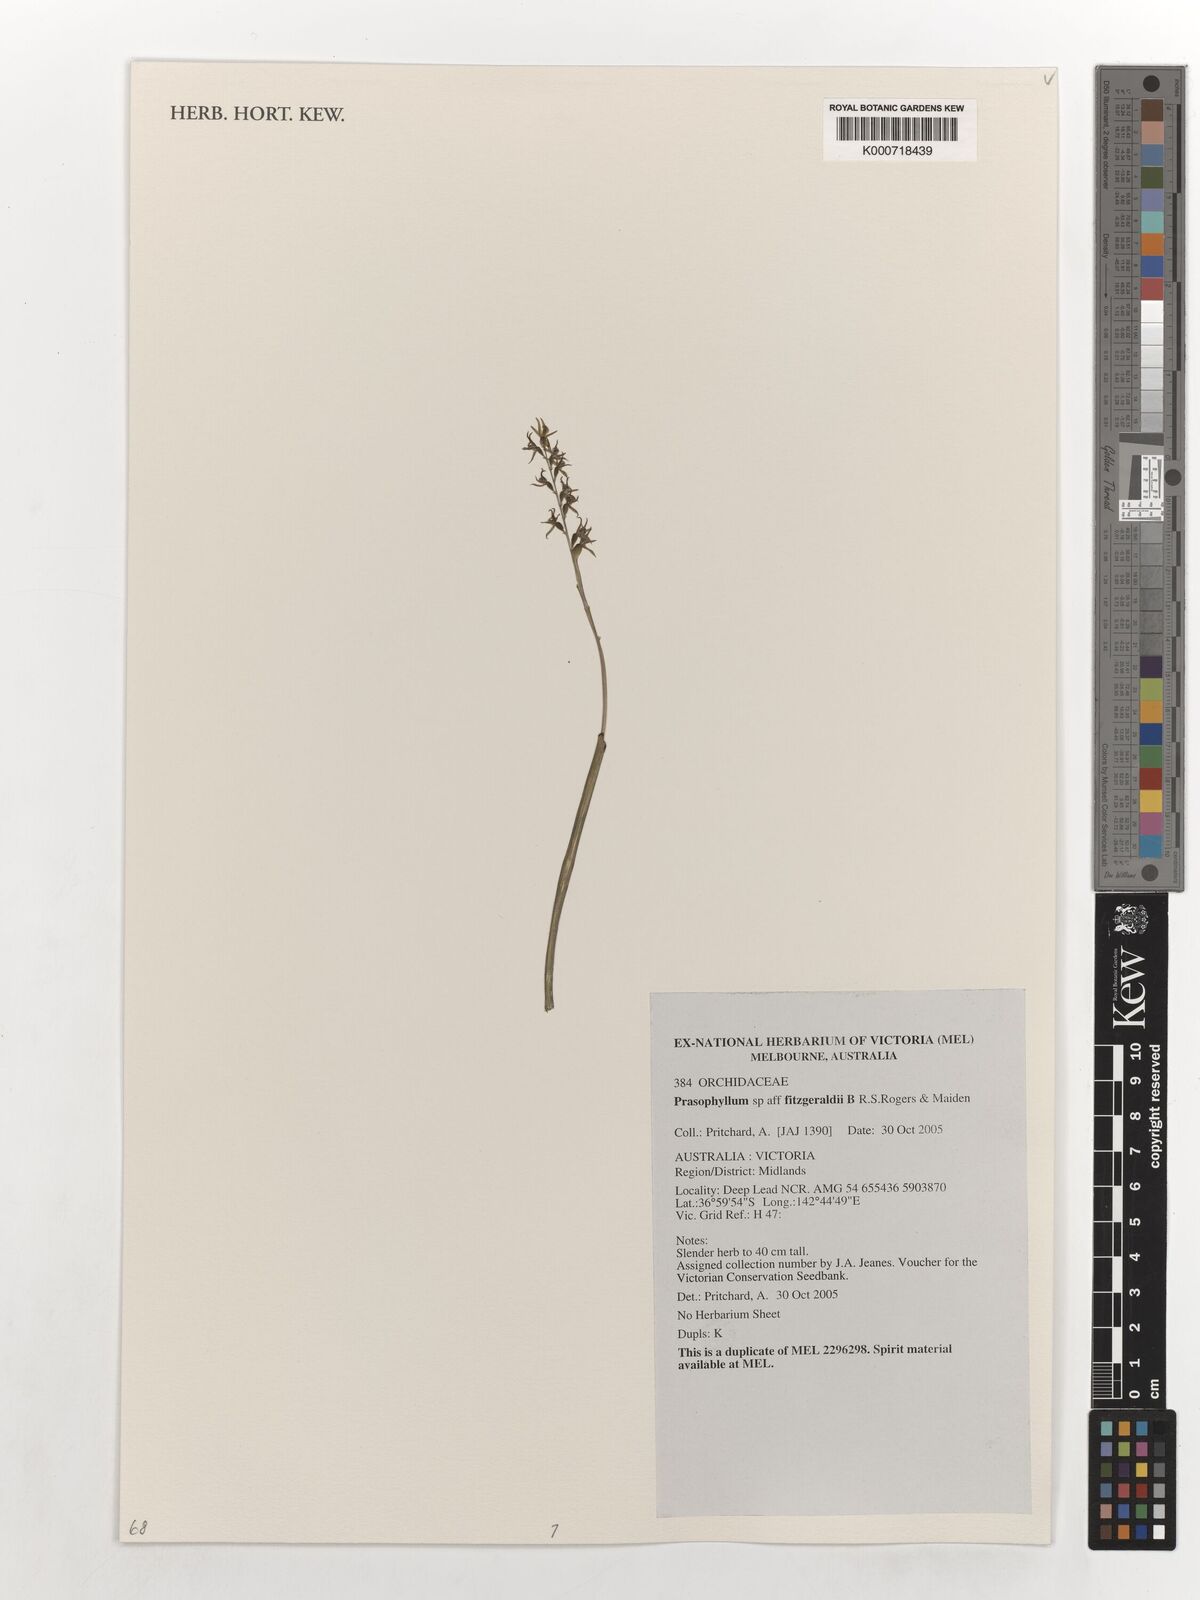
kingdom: Plantae
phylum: Tracheophyta
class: Liliopsida
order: Asparagales
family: Orchidaceae
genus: Prasophyllum
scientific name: Prasophyllum fitzgeraldii
